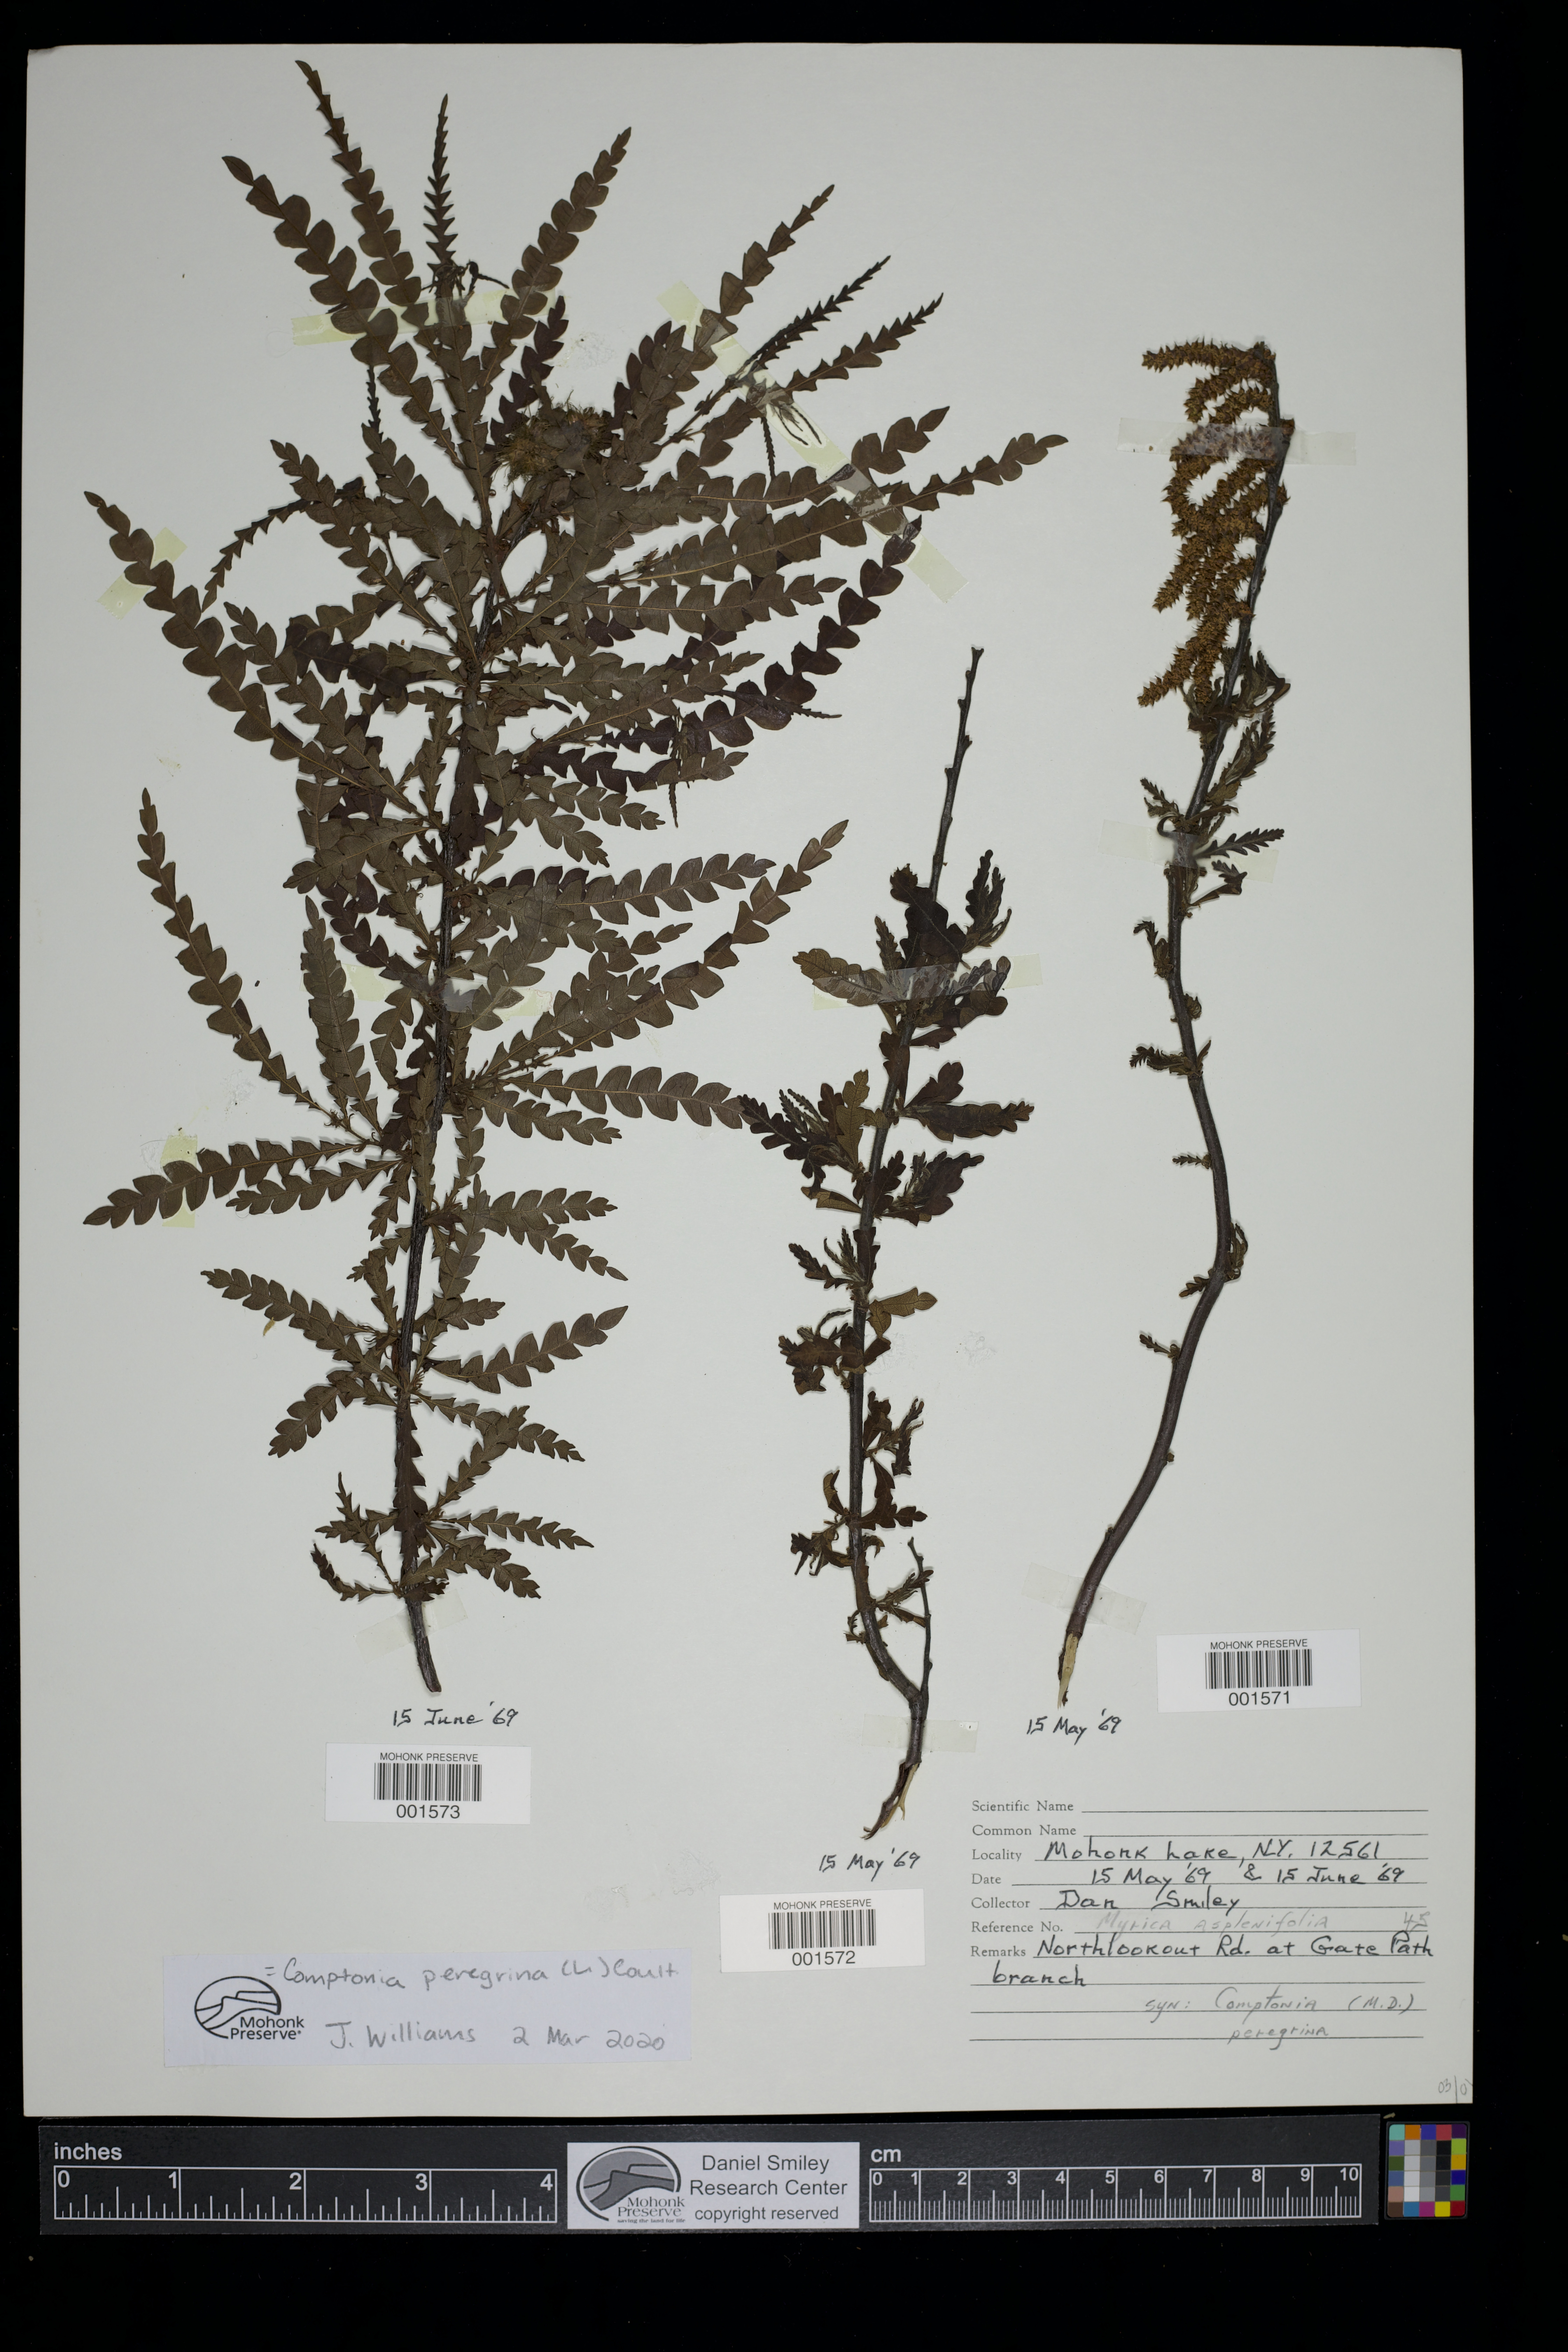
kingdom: Plantae
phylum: Tracheophyta
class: Magnoliopsida
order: Fagales
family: Myricaceae
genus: Comptonia
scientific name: Comptonia peregrina
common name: Sweet-fern
